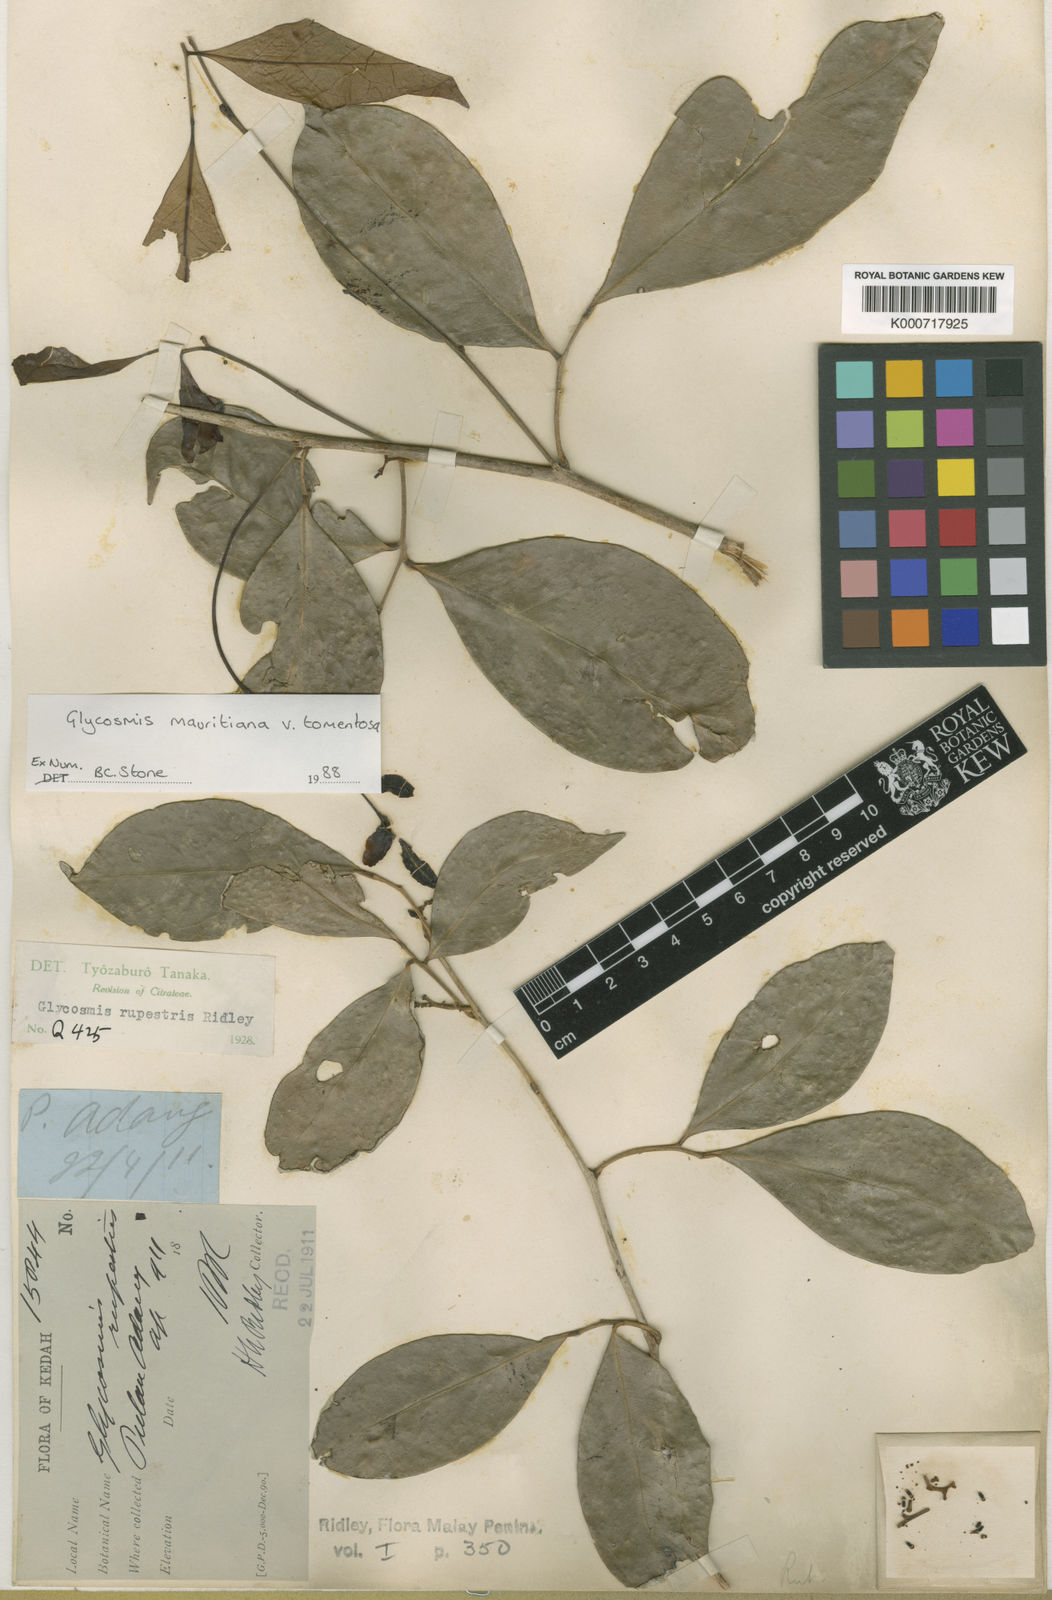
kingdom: Plantae
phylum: Tracheophyta
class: Magnoliopsida
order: Sapindales
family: Rutaceae
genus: Glycosmis
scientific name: Glycosmis mauritiana
